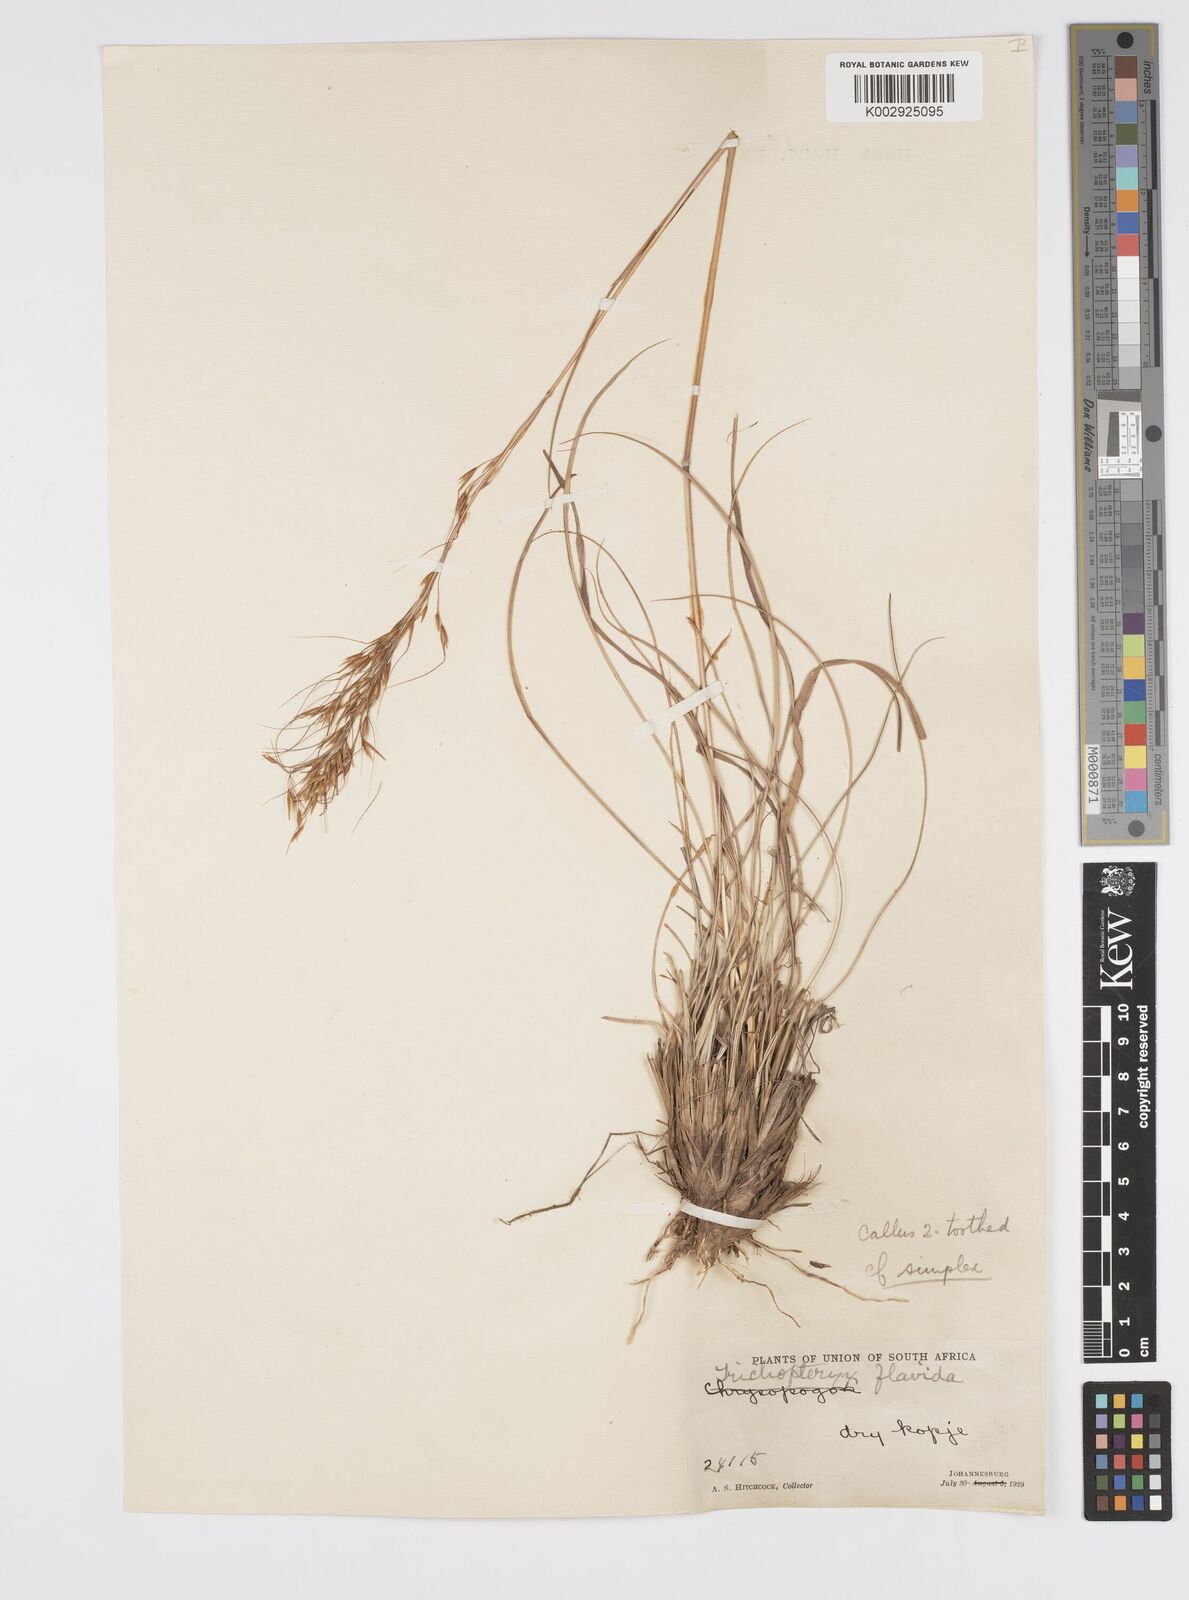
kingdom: Plantae
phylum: Tracheophyta
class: Liliopsida
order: Poales
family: Poaceae
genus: Loudetia
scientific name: Loudetia simplex
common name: Common russet grass
